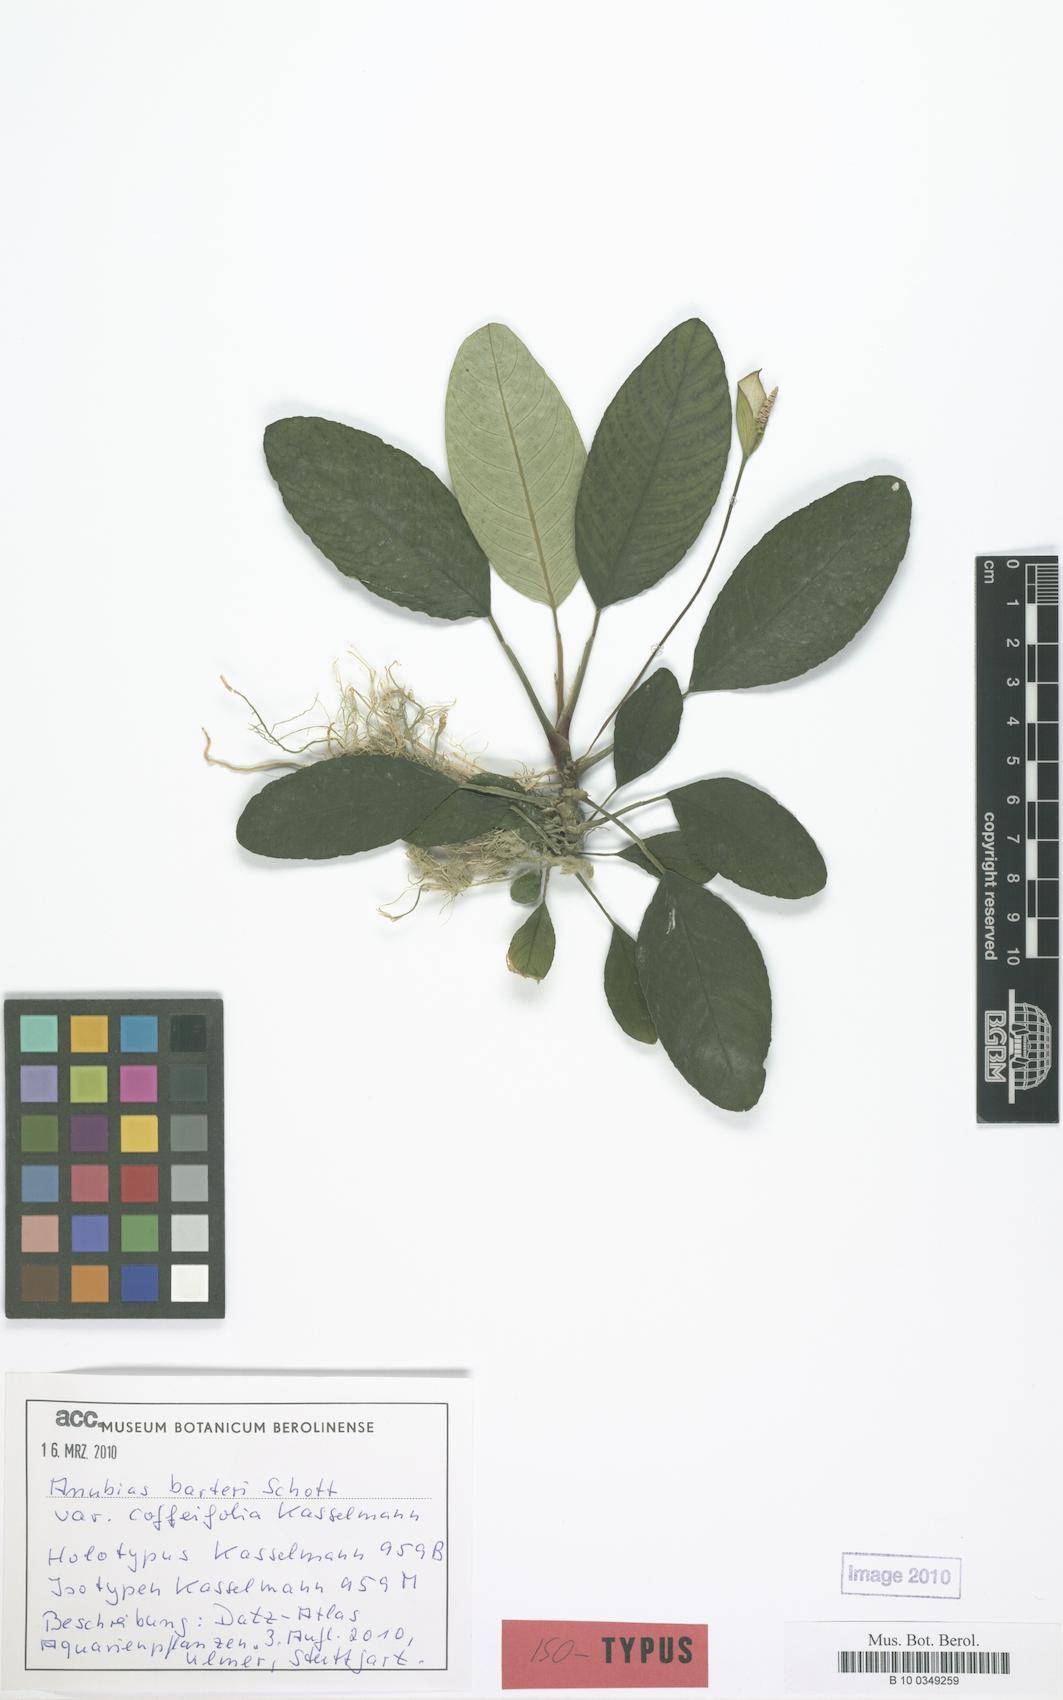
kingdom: Plantae
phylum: Tracheophyta
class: Liliopsida
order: Alismatales
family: Araceae
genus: Anubias
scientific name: Anubias barteri
